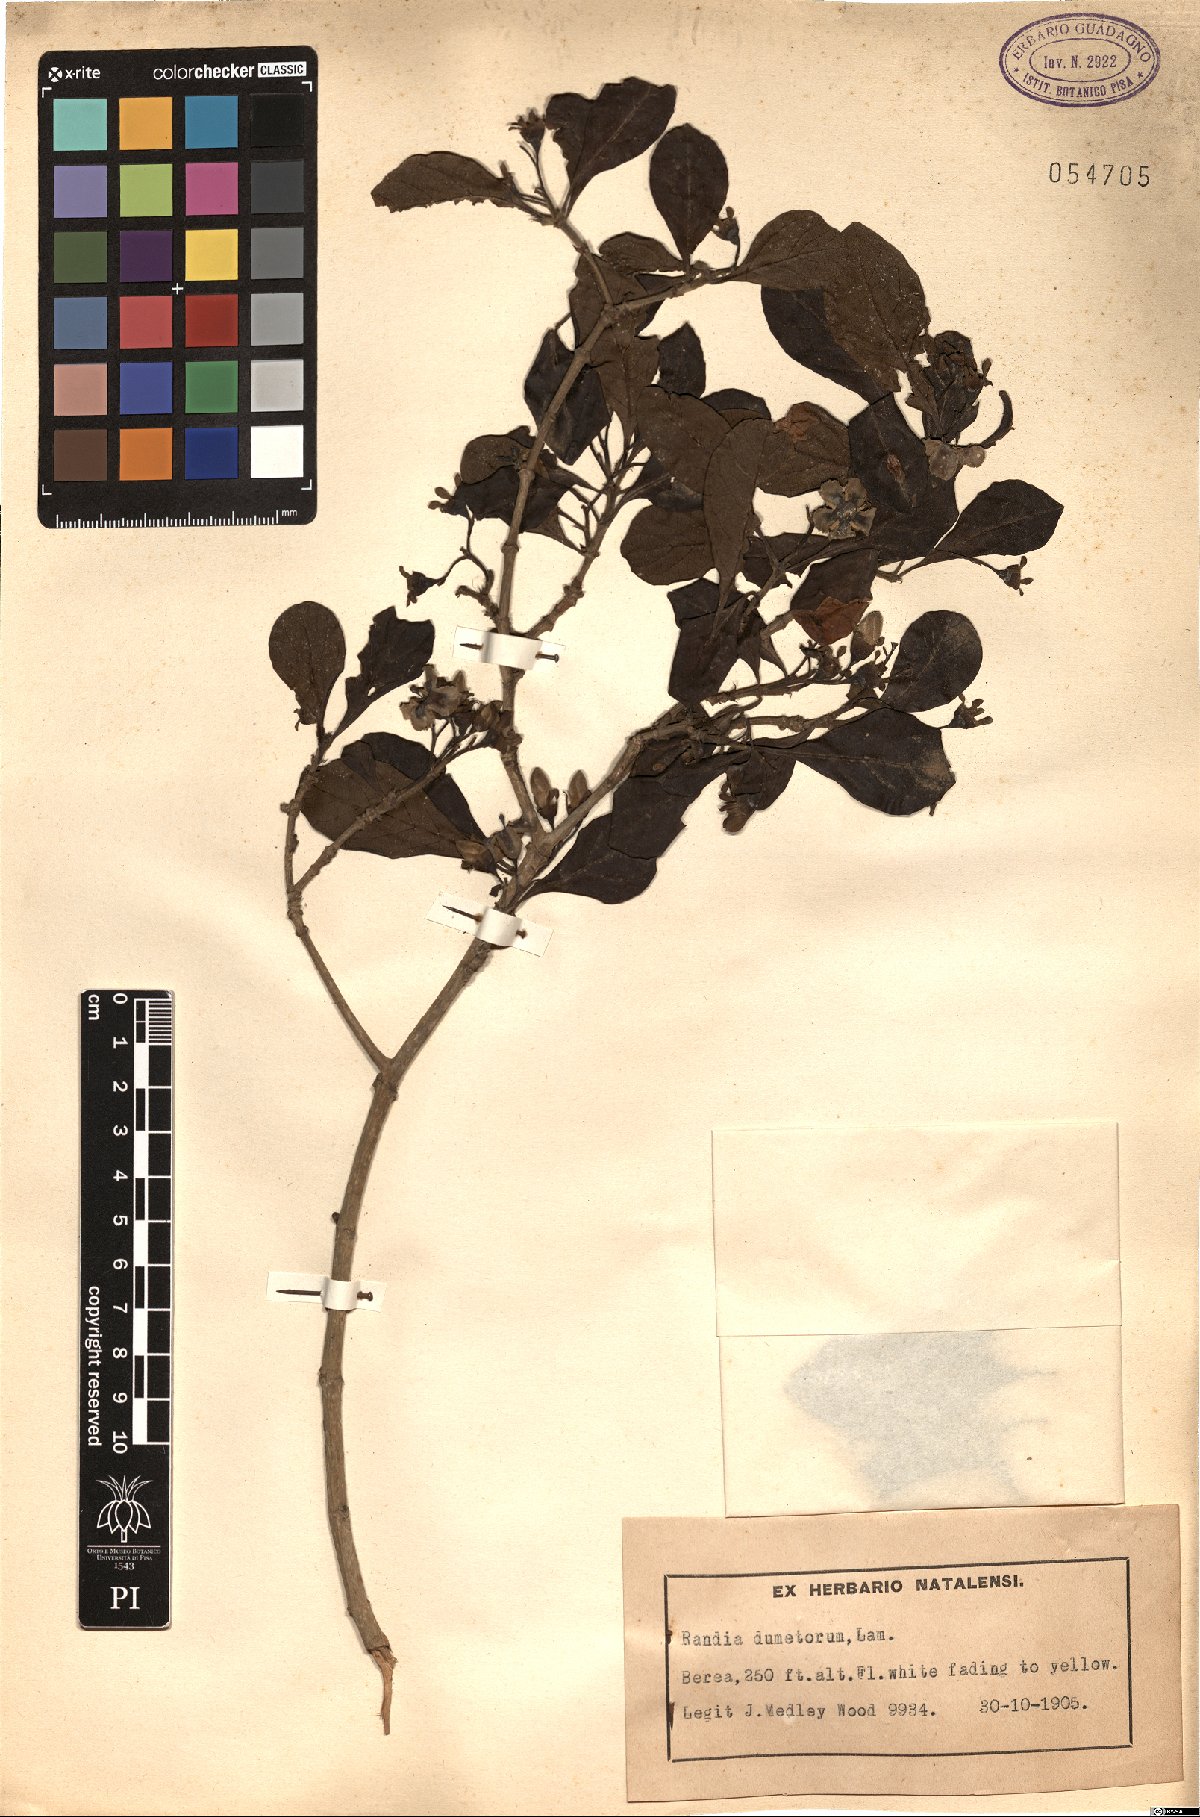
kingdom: Plantae
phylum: Tracheophyta
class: Magnoliopsida
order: Gentianales
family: Rubiaceae
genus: Catunaregam
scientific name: Catunaregam spinosa
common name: Emetic-nut
